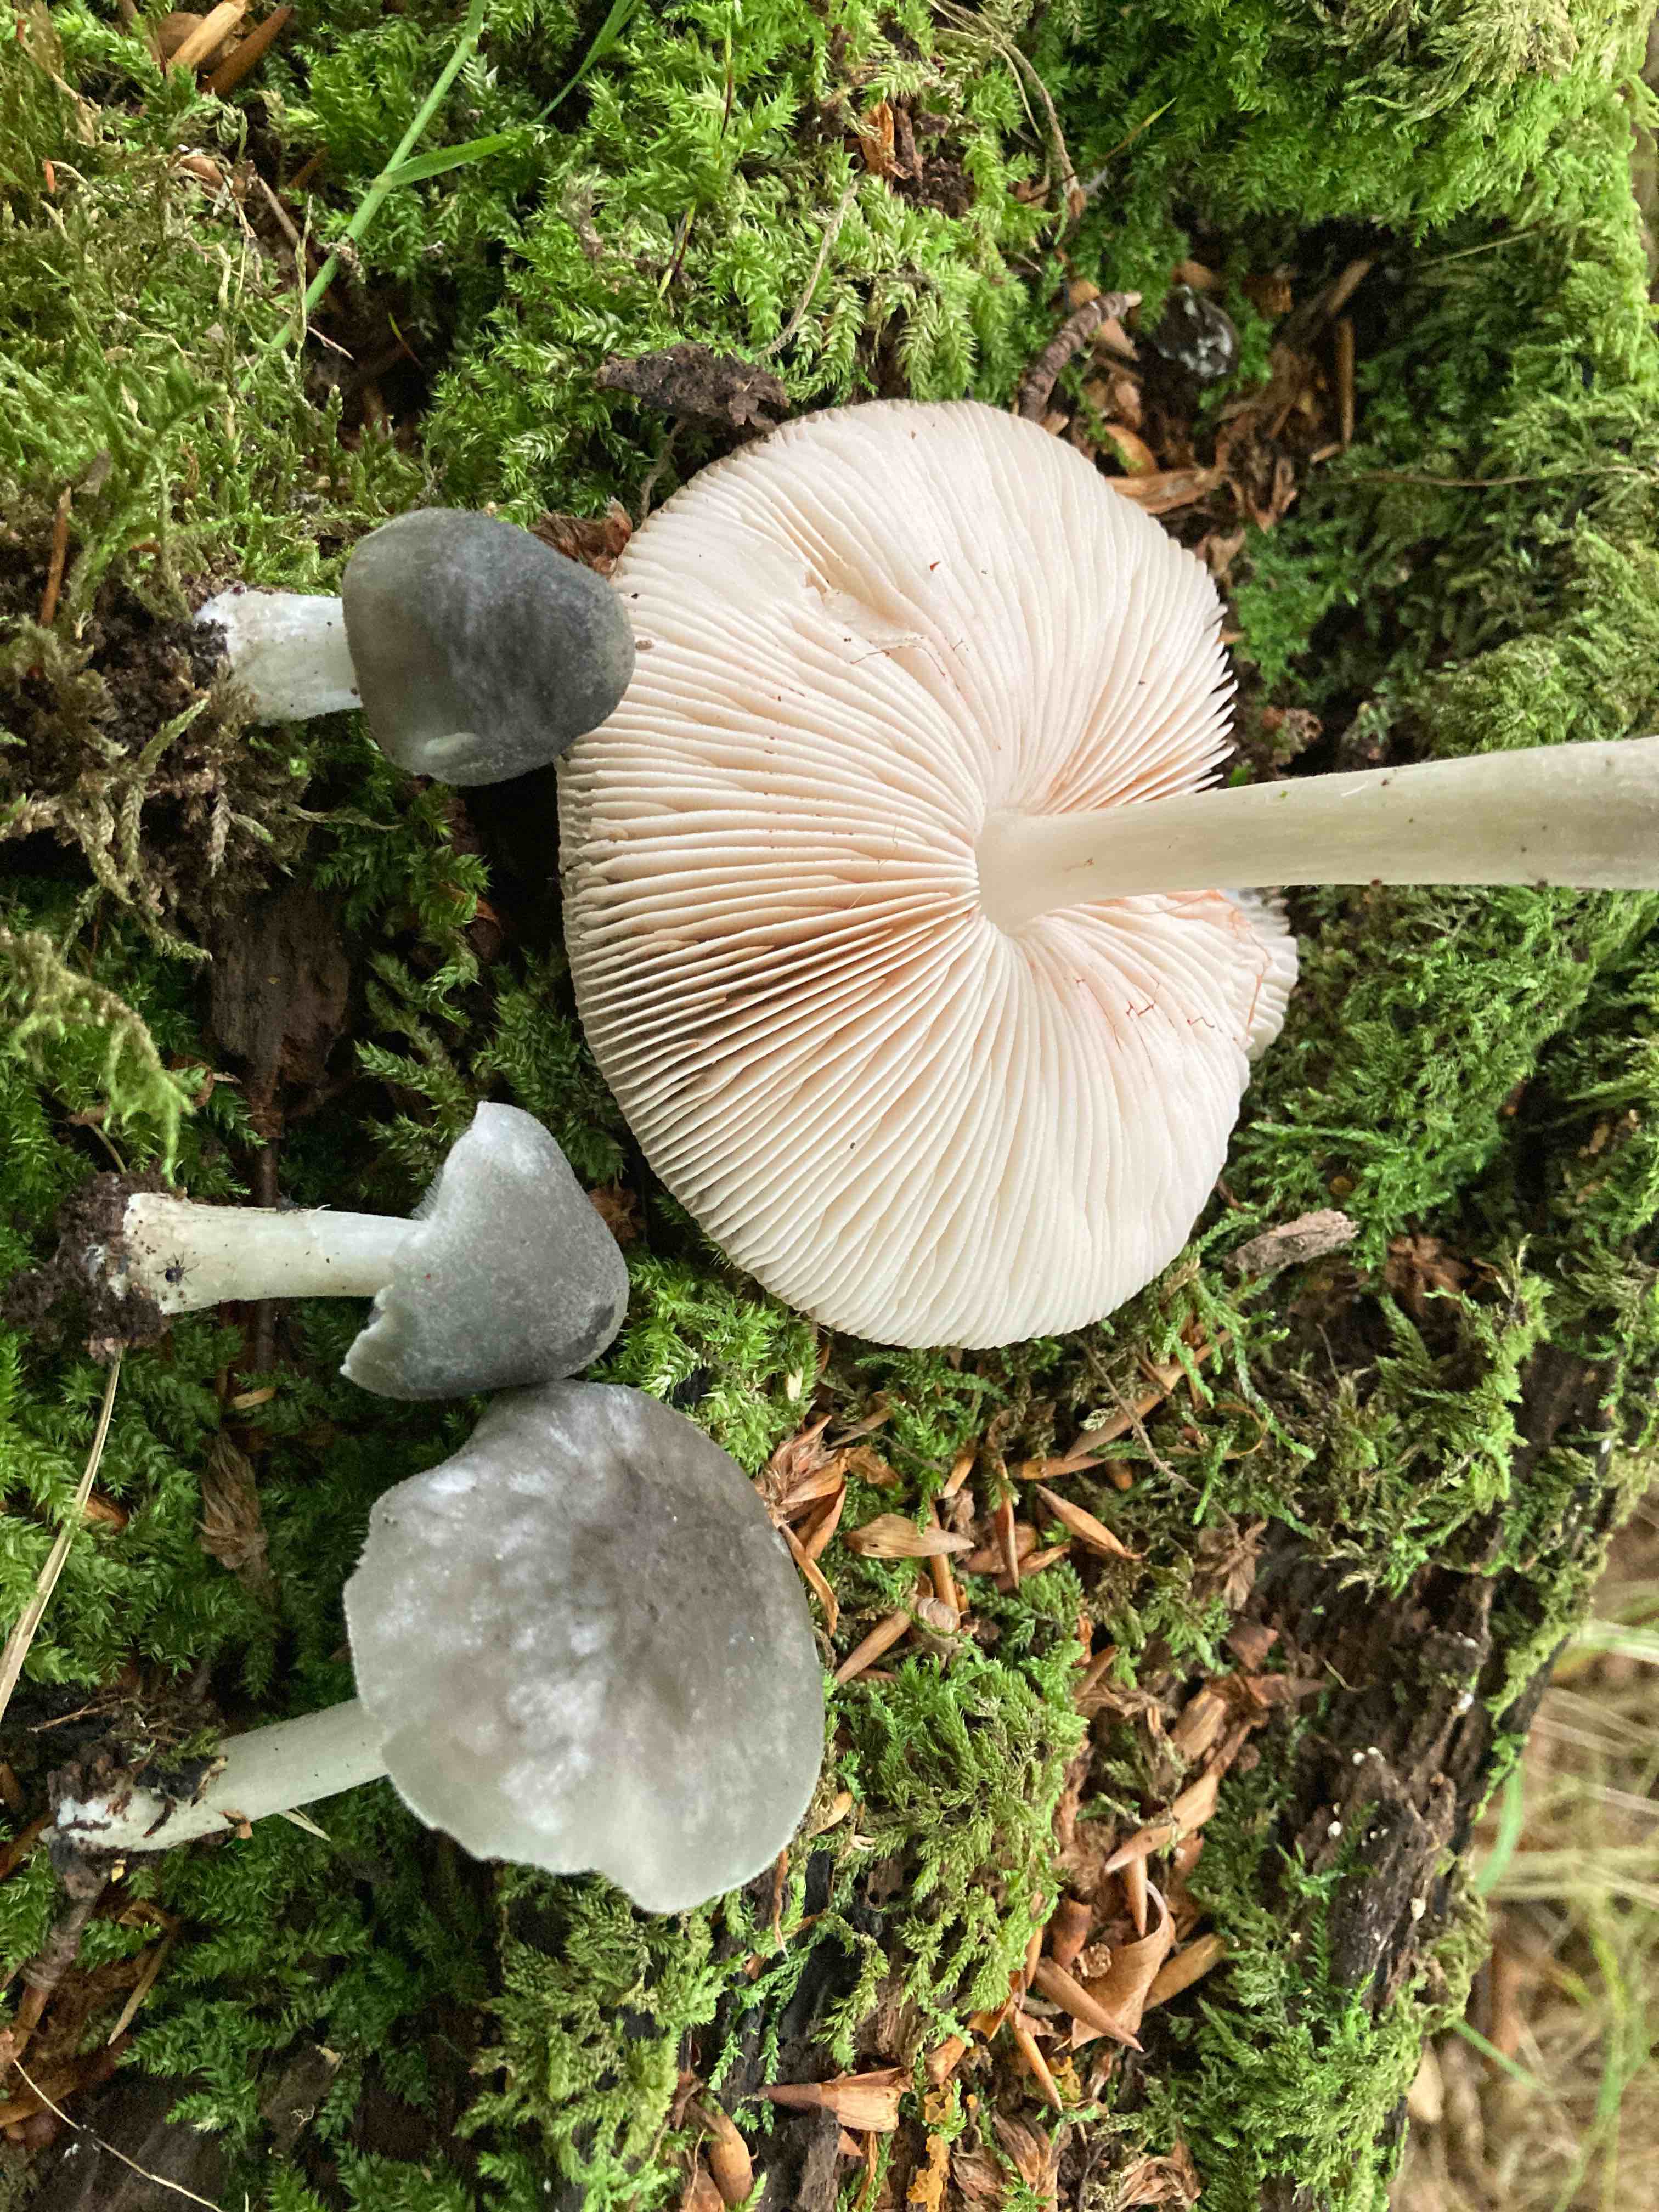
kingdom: Fungi
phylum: Basidiomycota
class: Agaricomycetes
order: Agaricales
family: Pluteaceae
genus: Pluteus
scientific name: Pluteus salicinus
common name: stiv skærmhat
